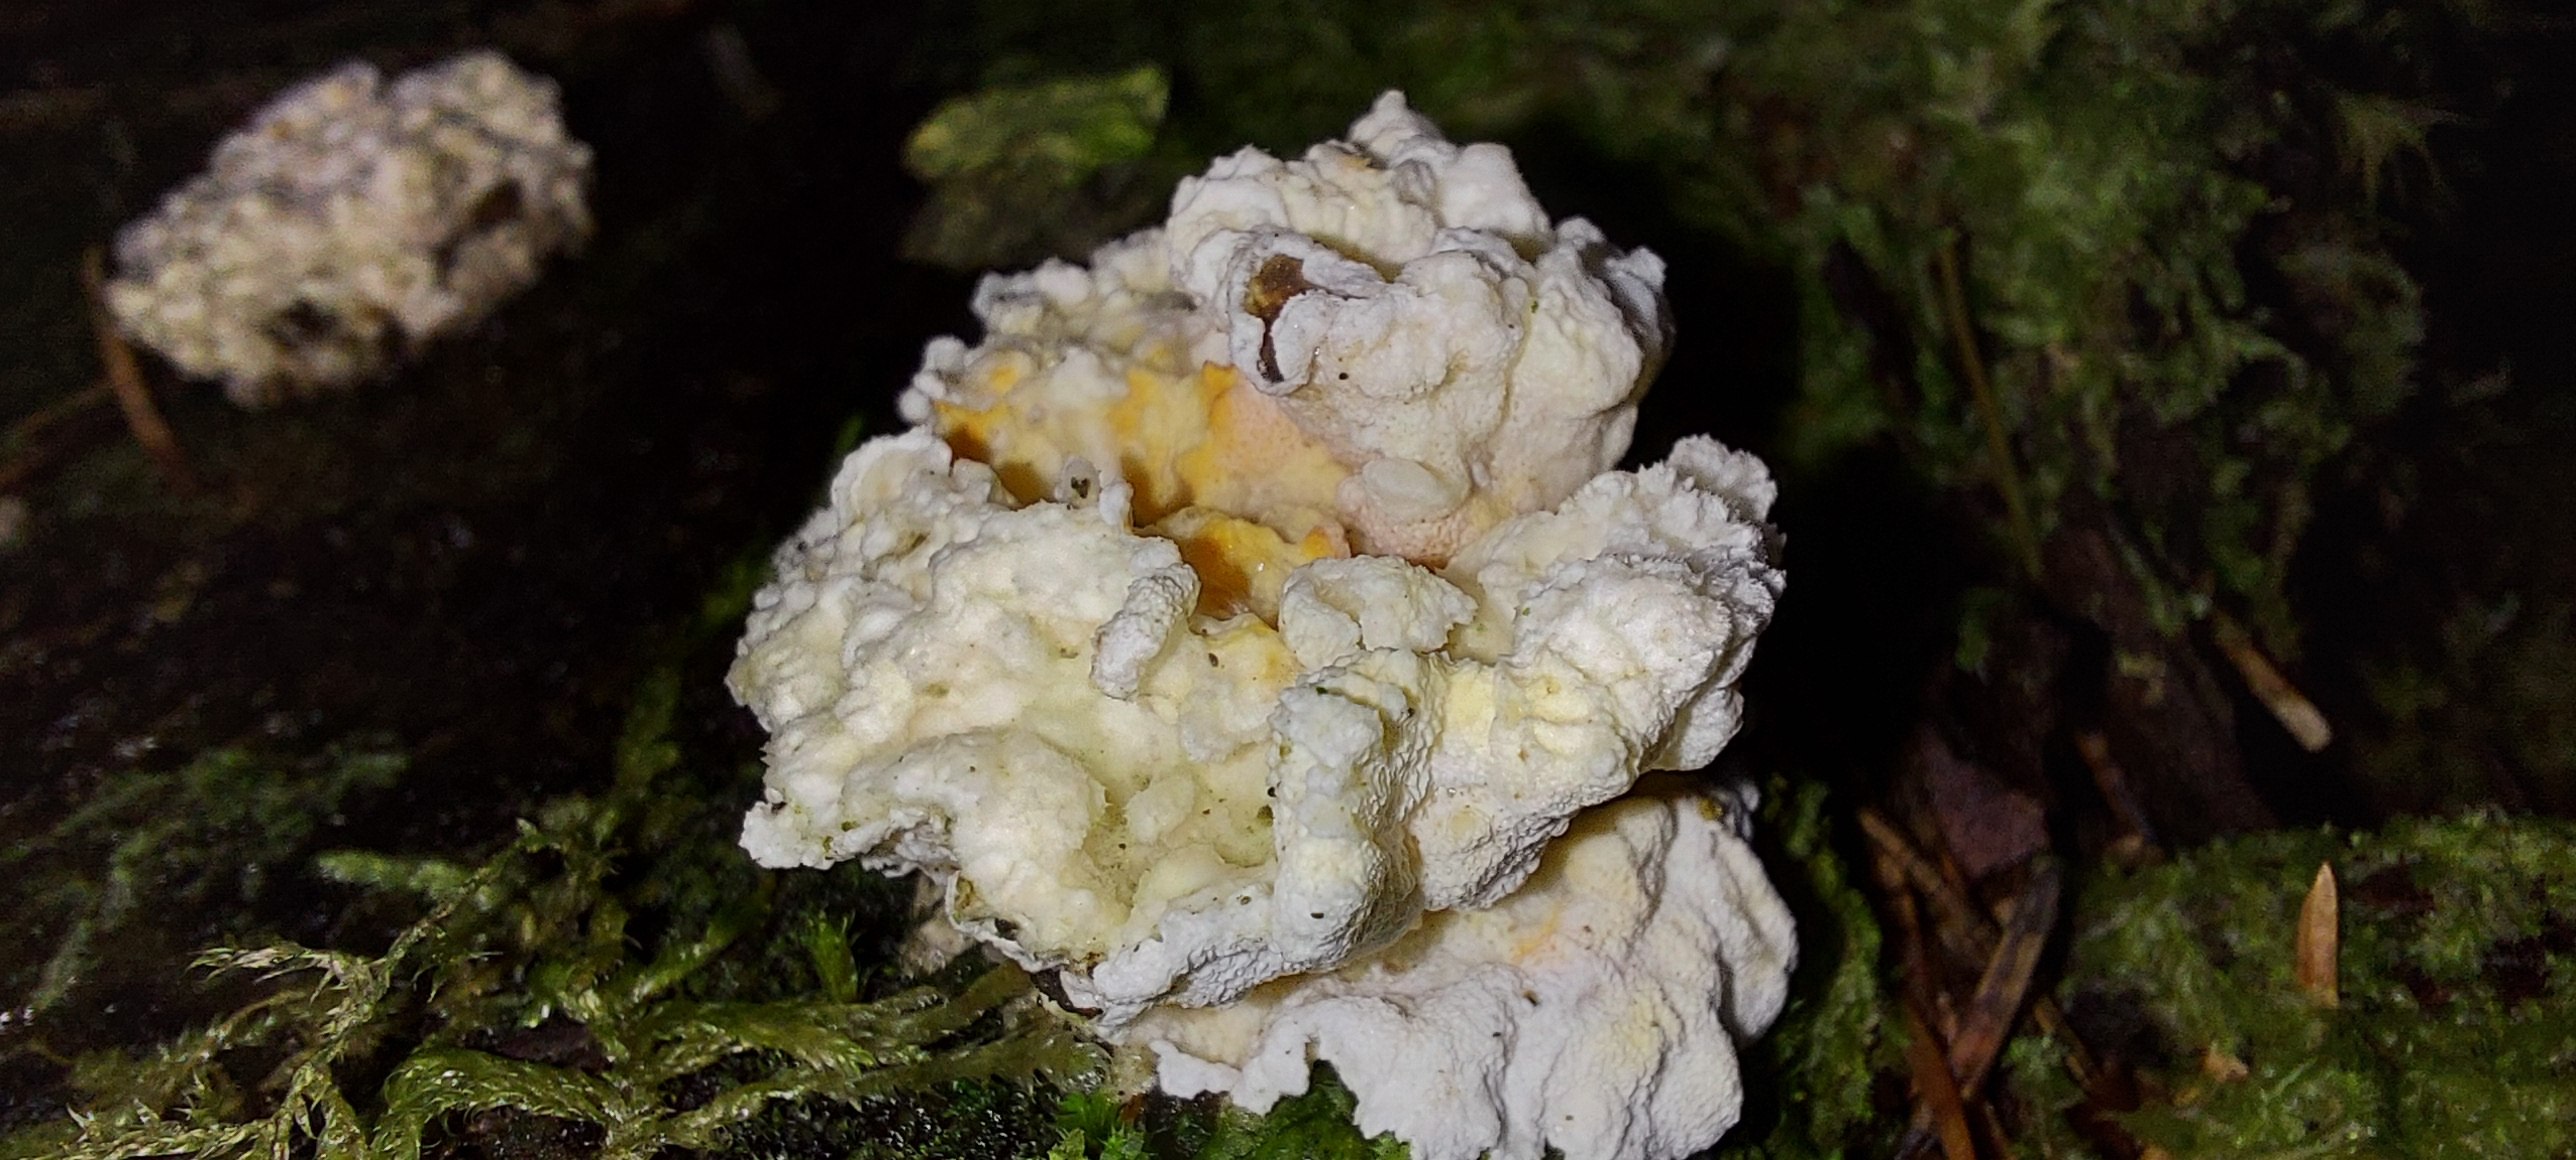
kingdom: Fungi
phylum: Basidiomycota
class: Agaricomycetes
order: Polyporales
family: Incrustoporiaceae
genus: Skeletocutis
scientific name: Skeletocutis amorpha
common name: orange krystalporesvamp
